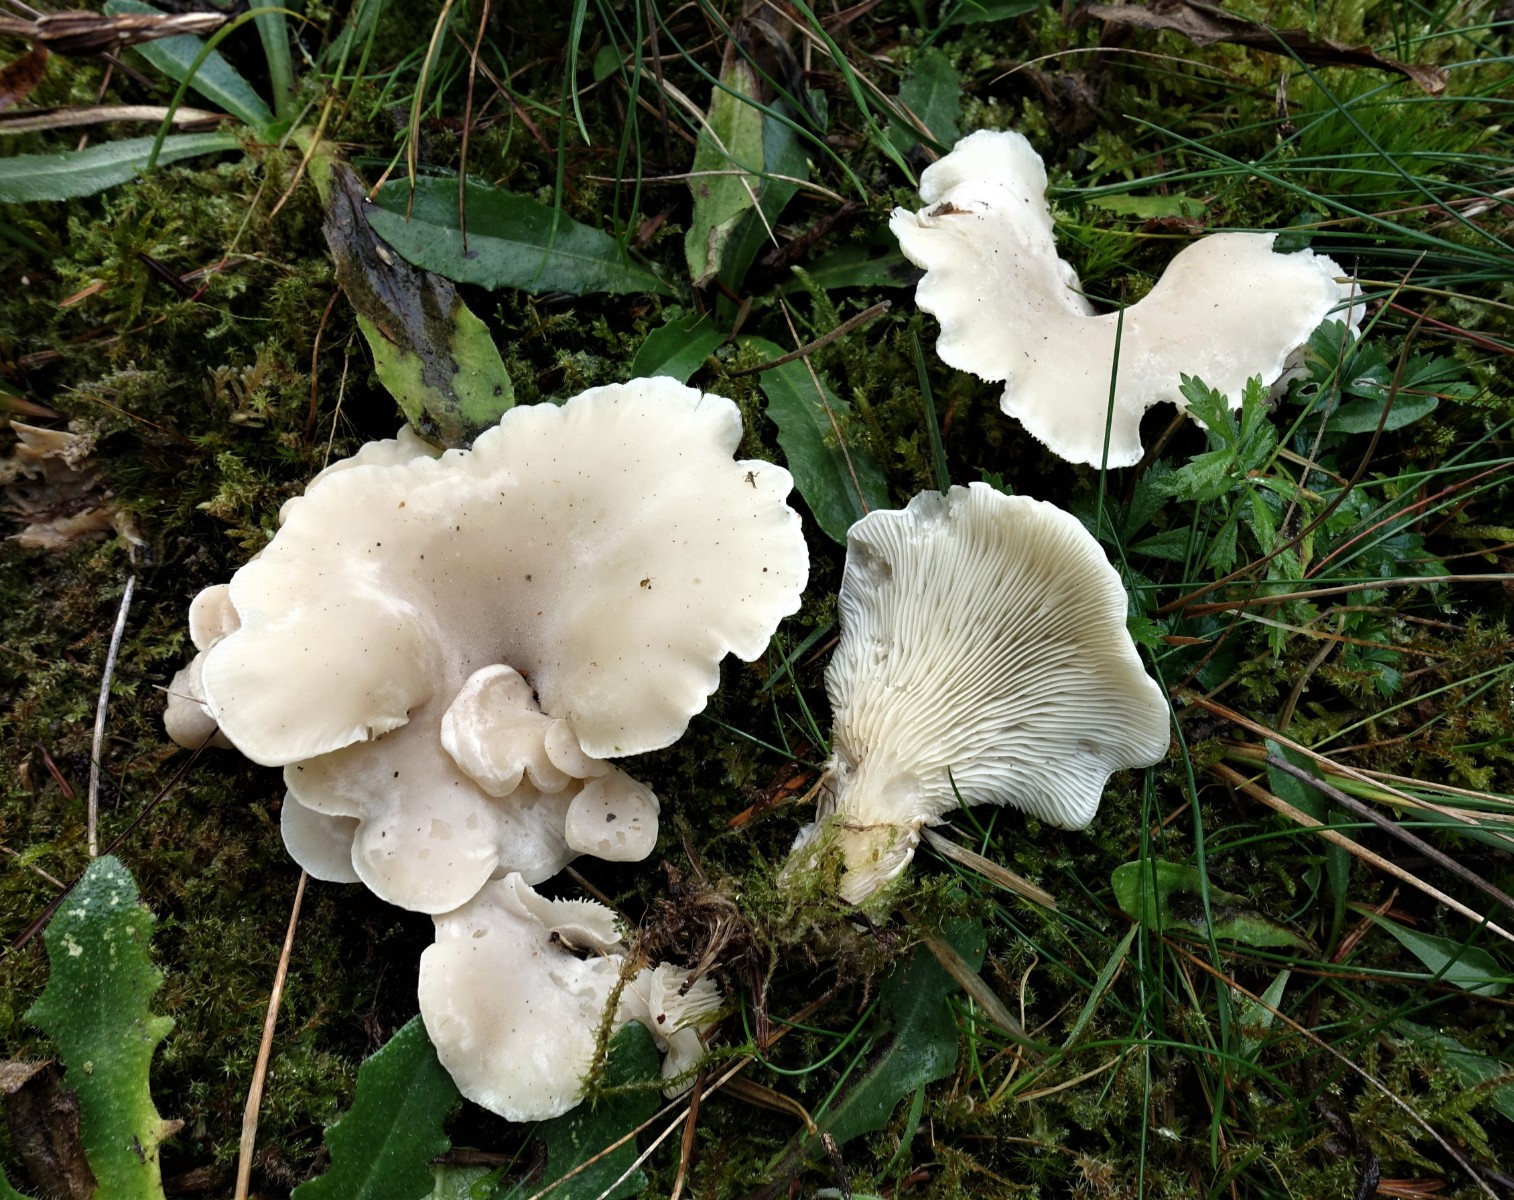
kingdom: Fungi
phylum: Basidiomycota
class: Agaricomycetes
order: Agaricales
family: Marasmiaceae
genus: Pleurocybella
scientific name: Pleurocybella porrigens
